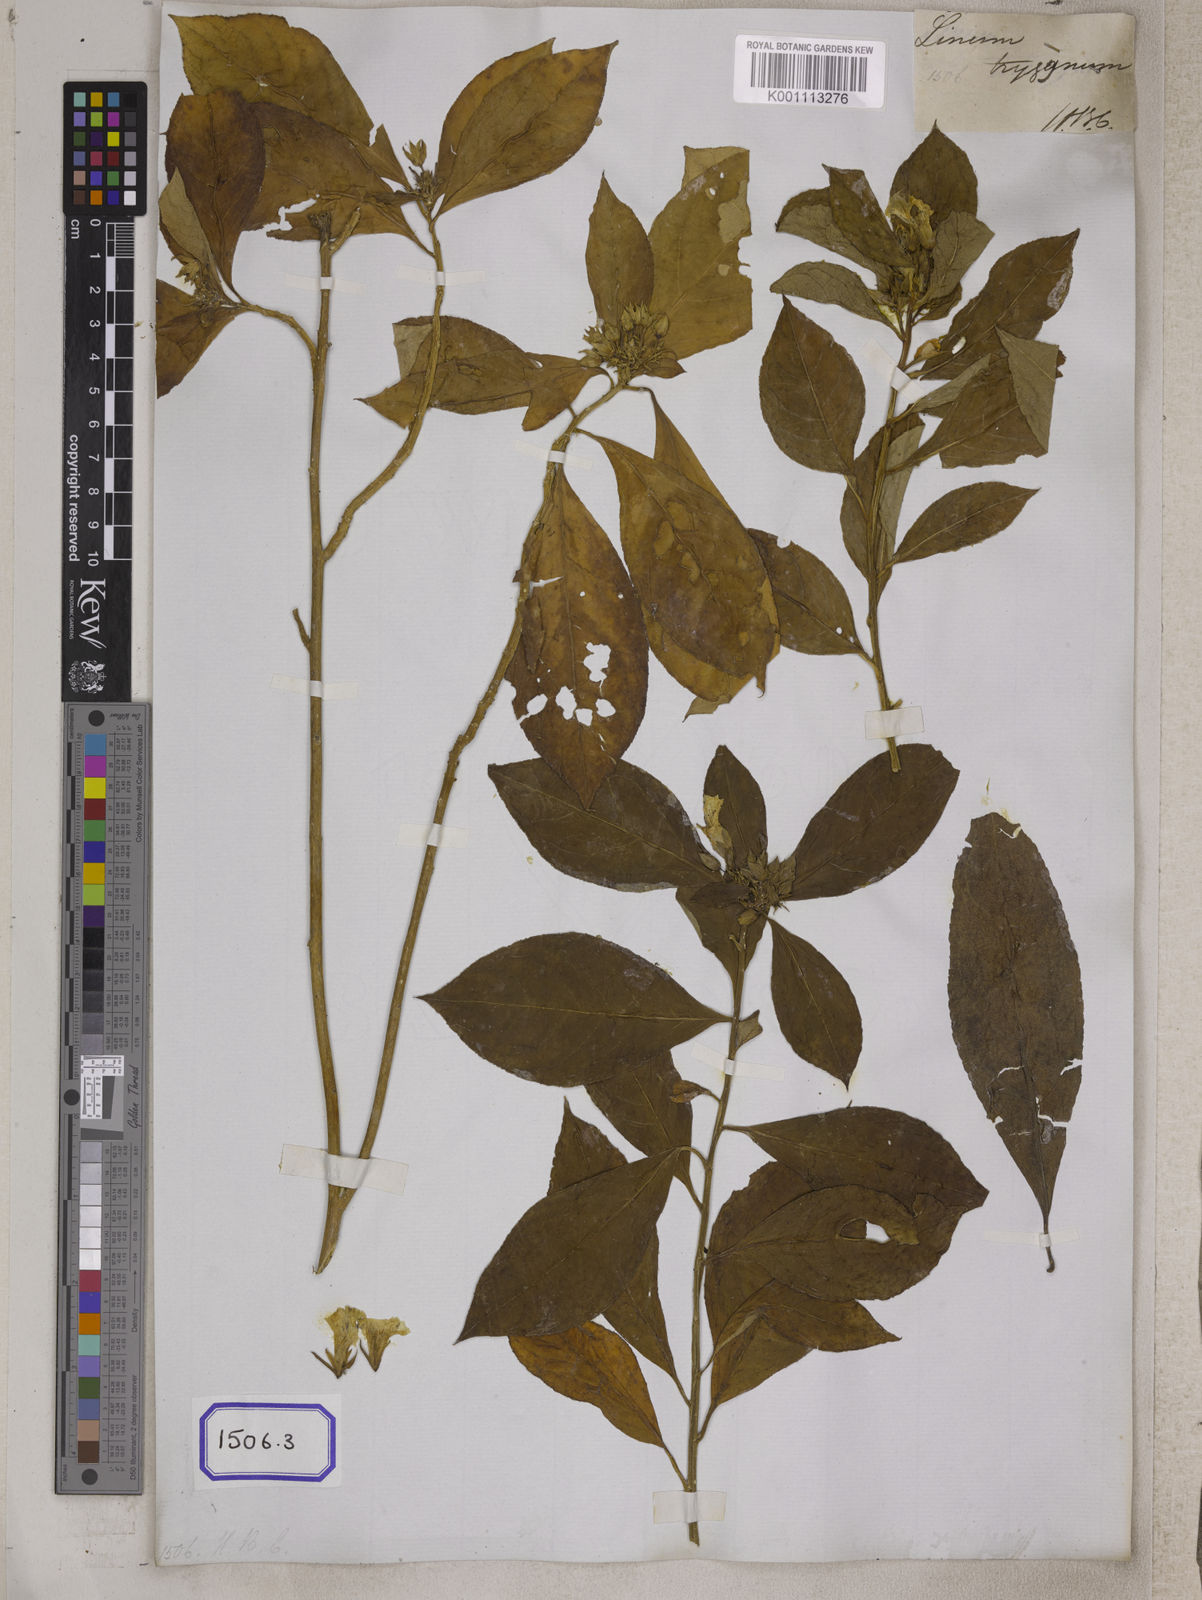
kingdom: Plantae
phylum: Tracheophyta
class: Magnoliopsida
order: Malpighiales
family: Linaceae
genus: Linum
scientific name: Linum
